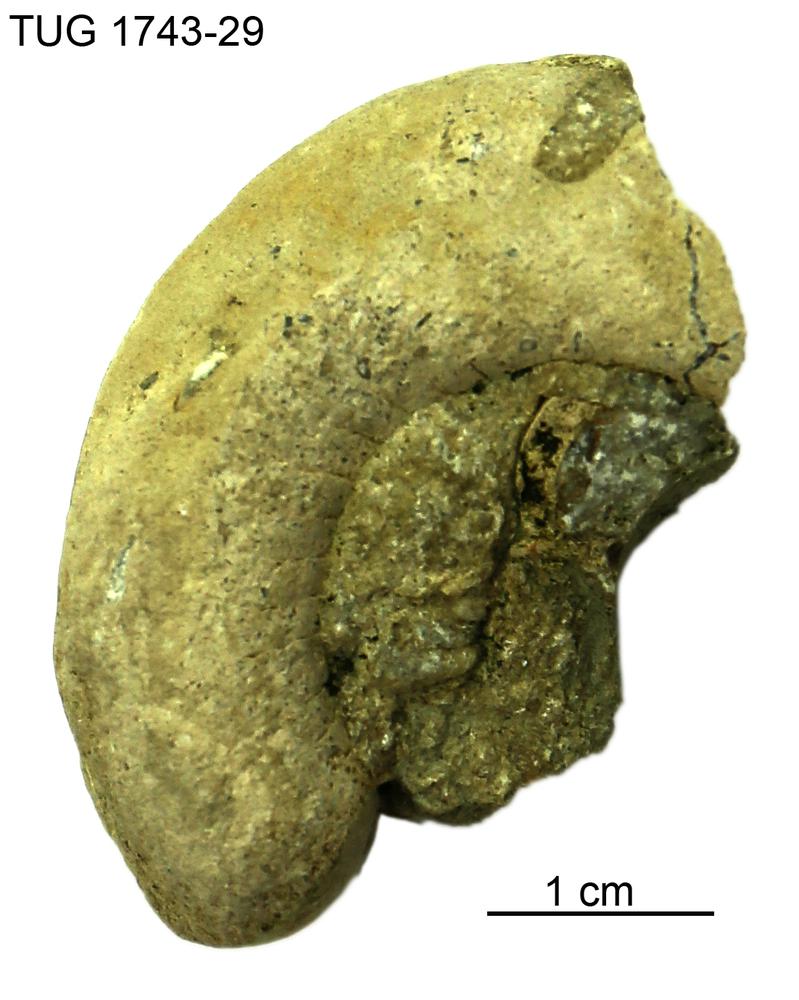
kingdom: Animalia
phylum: Mollusca
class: Cephalopoda
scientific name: Cephalopoda
